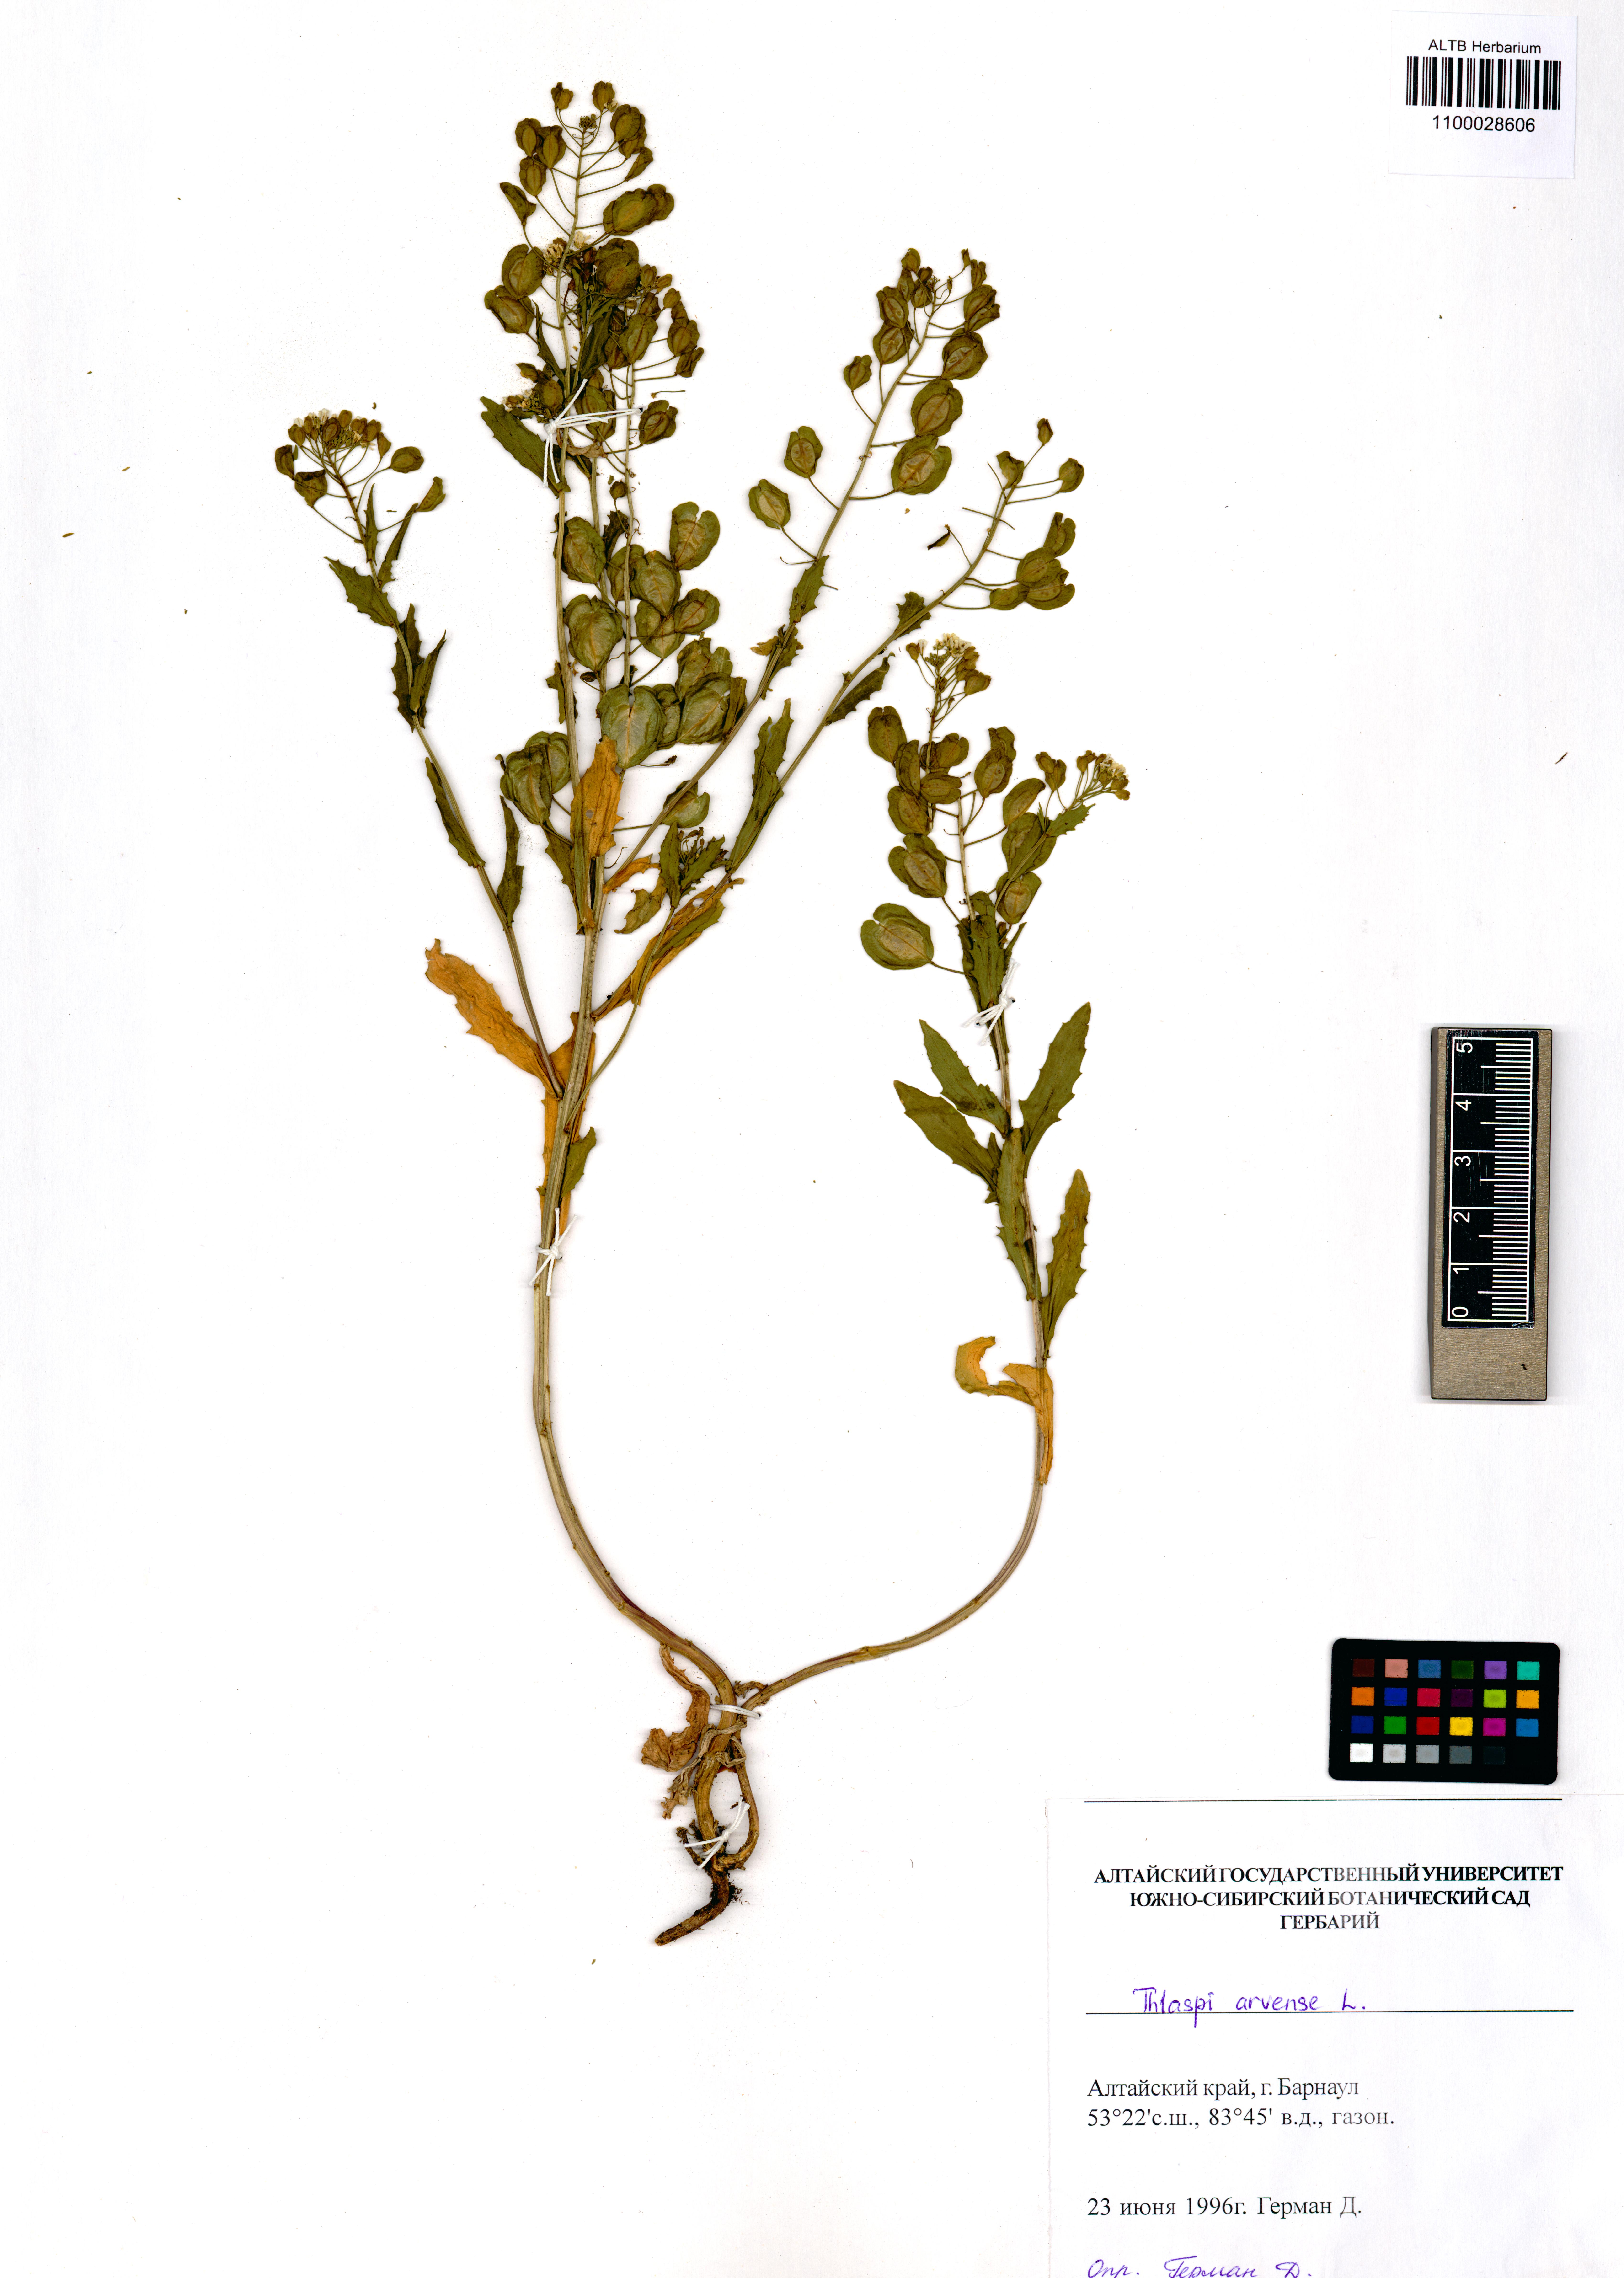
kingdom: Plantae
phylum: Tracheophyta
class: Magnoliopsida
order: Brassicales
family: Brassicaceae
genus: Thlaspi
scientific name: Thlaspi arvense
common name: Field pennycress
